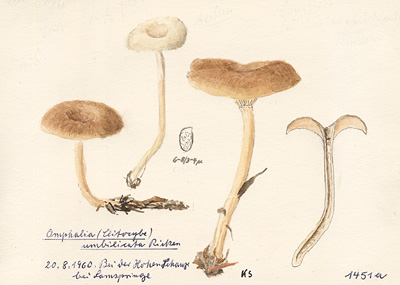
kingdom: Fungi
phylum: Basidiomycota
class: Agaricomycetes
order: Agaricales
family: Tricholomataceae
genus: Clitocybe
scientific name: Clitocybe umbilicata
